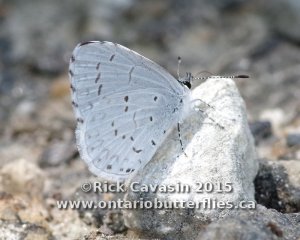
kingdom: Animalia
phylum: Arthropoda
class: Insecta
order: Lepidoptera
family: Lycaenidae
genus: Cyaniris
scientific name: Cyaniris neglecta
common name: Summer Azure
